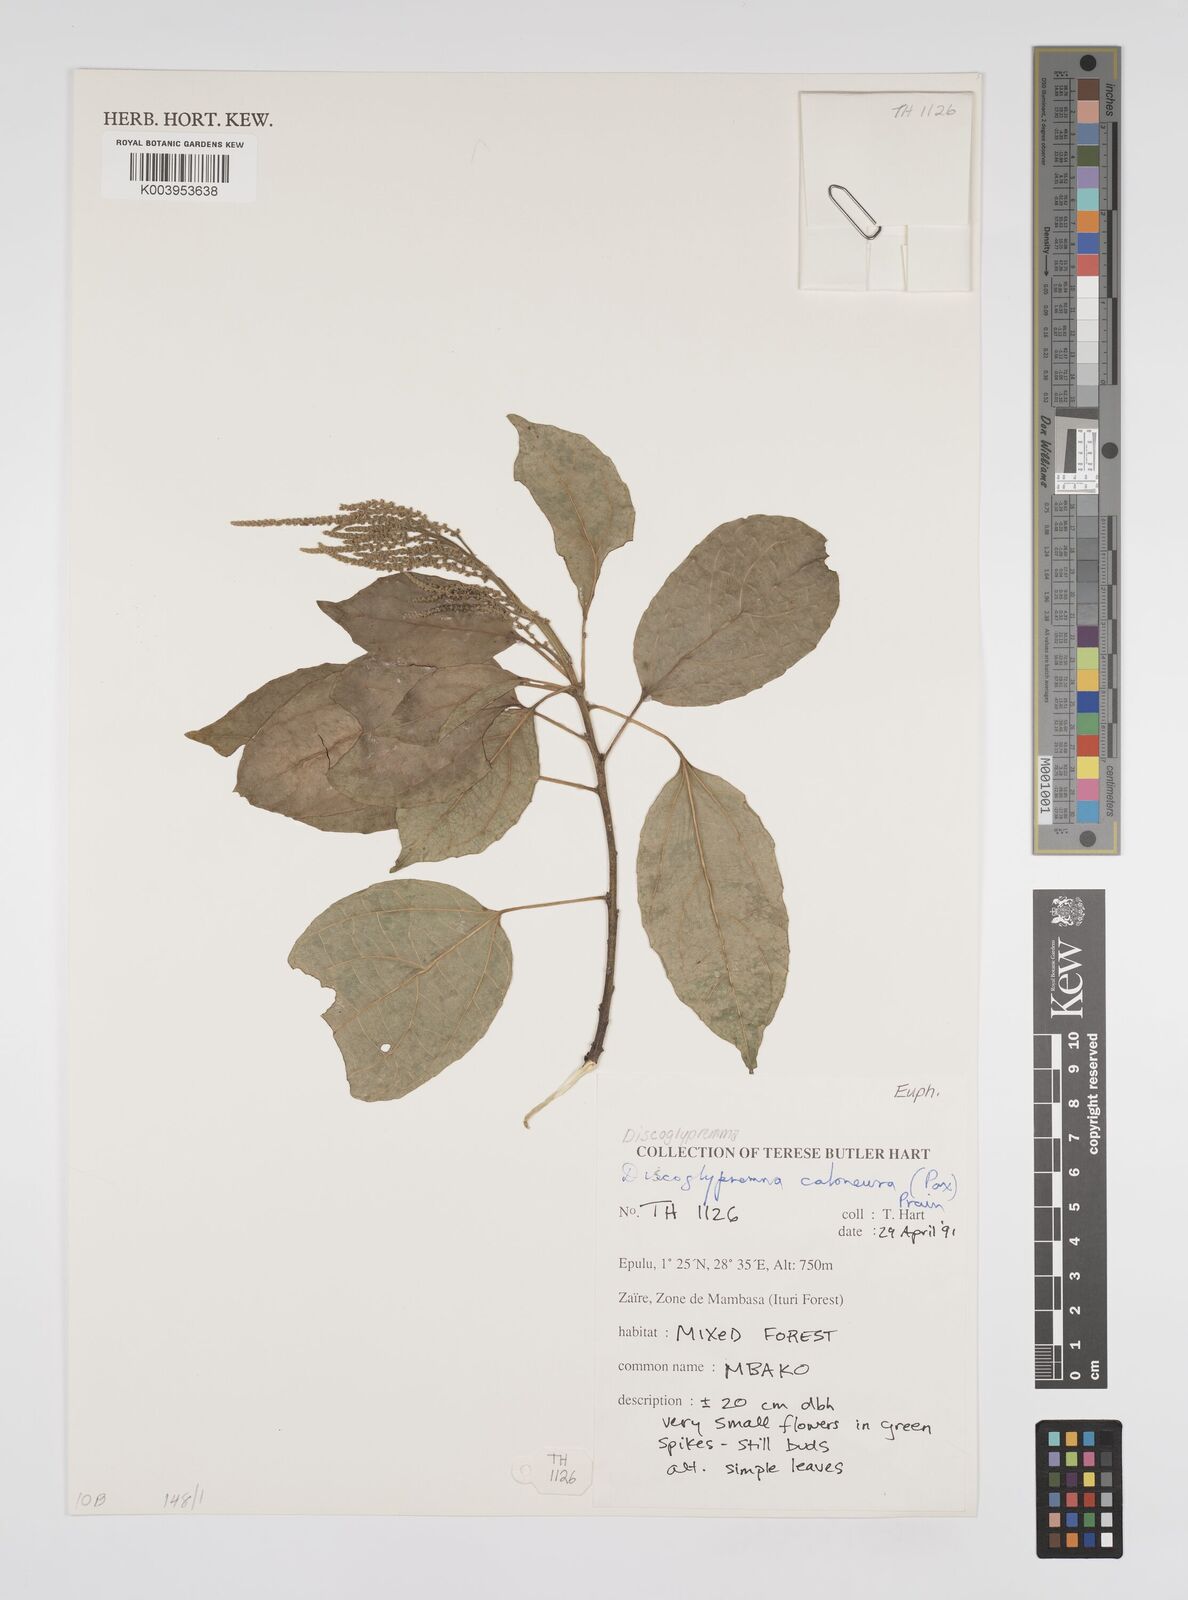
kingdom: Plantae
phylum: Tracheophyta
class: Magnoliopsida
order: Malpighiales
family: Euphorbiaceae
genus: Discoglypremna
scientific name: Discoglypremna caloneura
